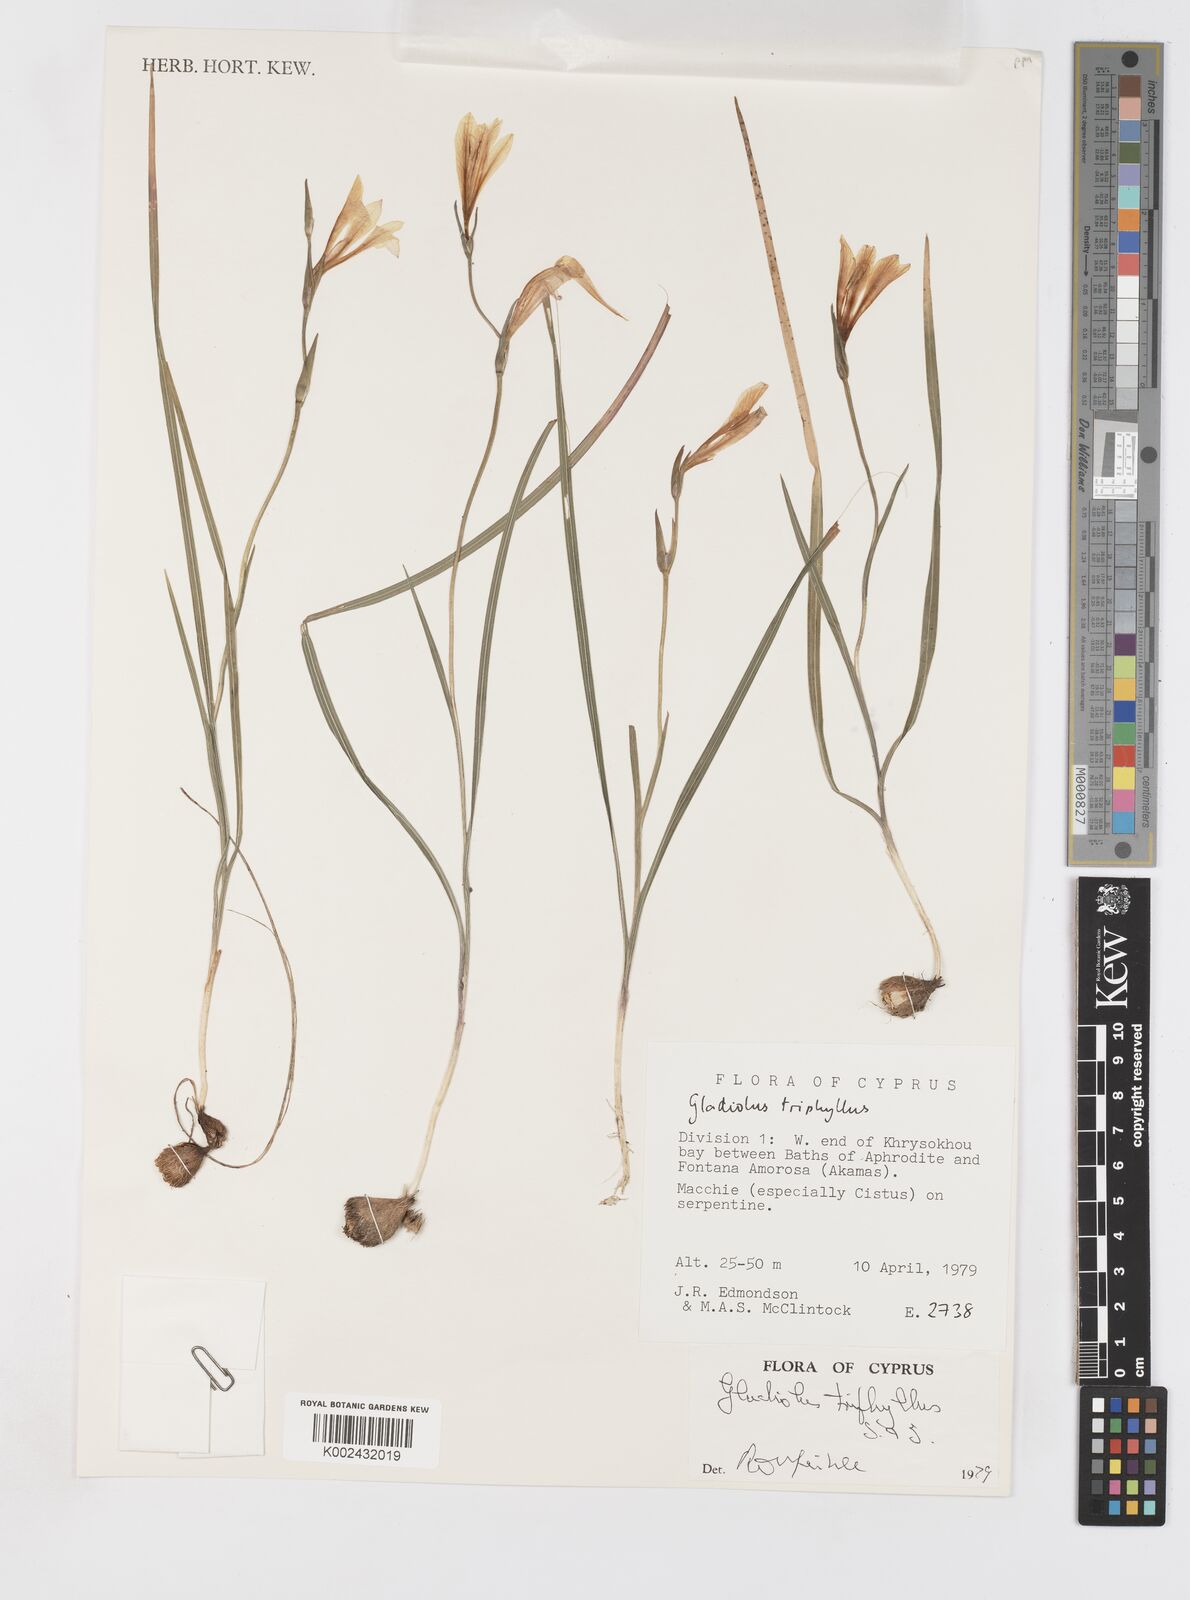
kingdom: Plantae
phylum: Tracheophyta
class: Liliopsida
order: Asparagales
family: Iridaceae
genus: Gladiolus
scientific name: Gladiolus triphyllus
